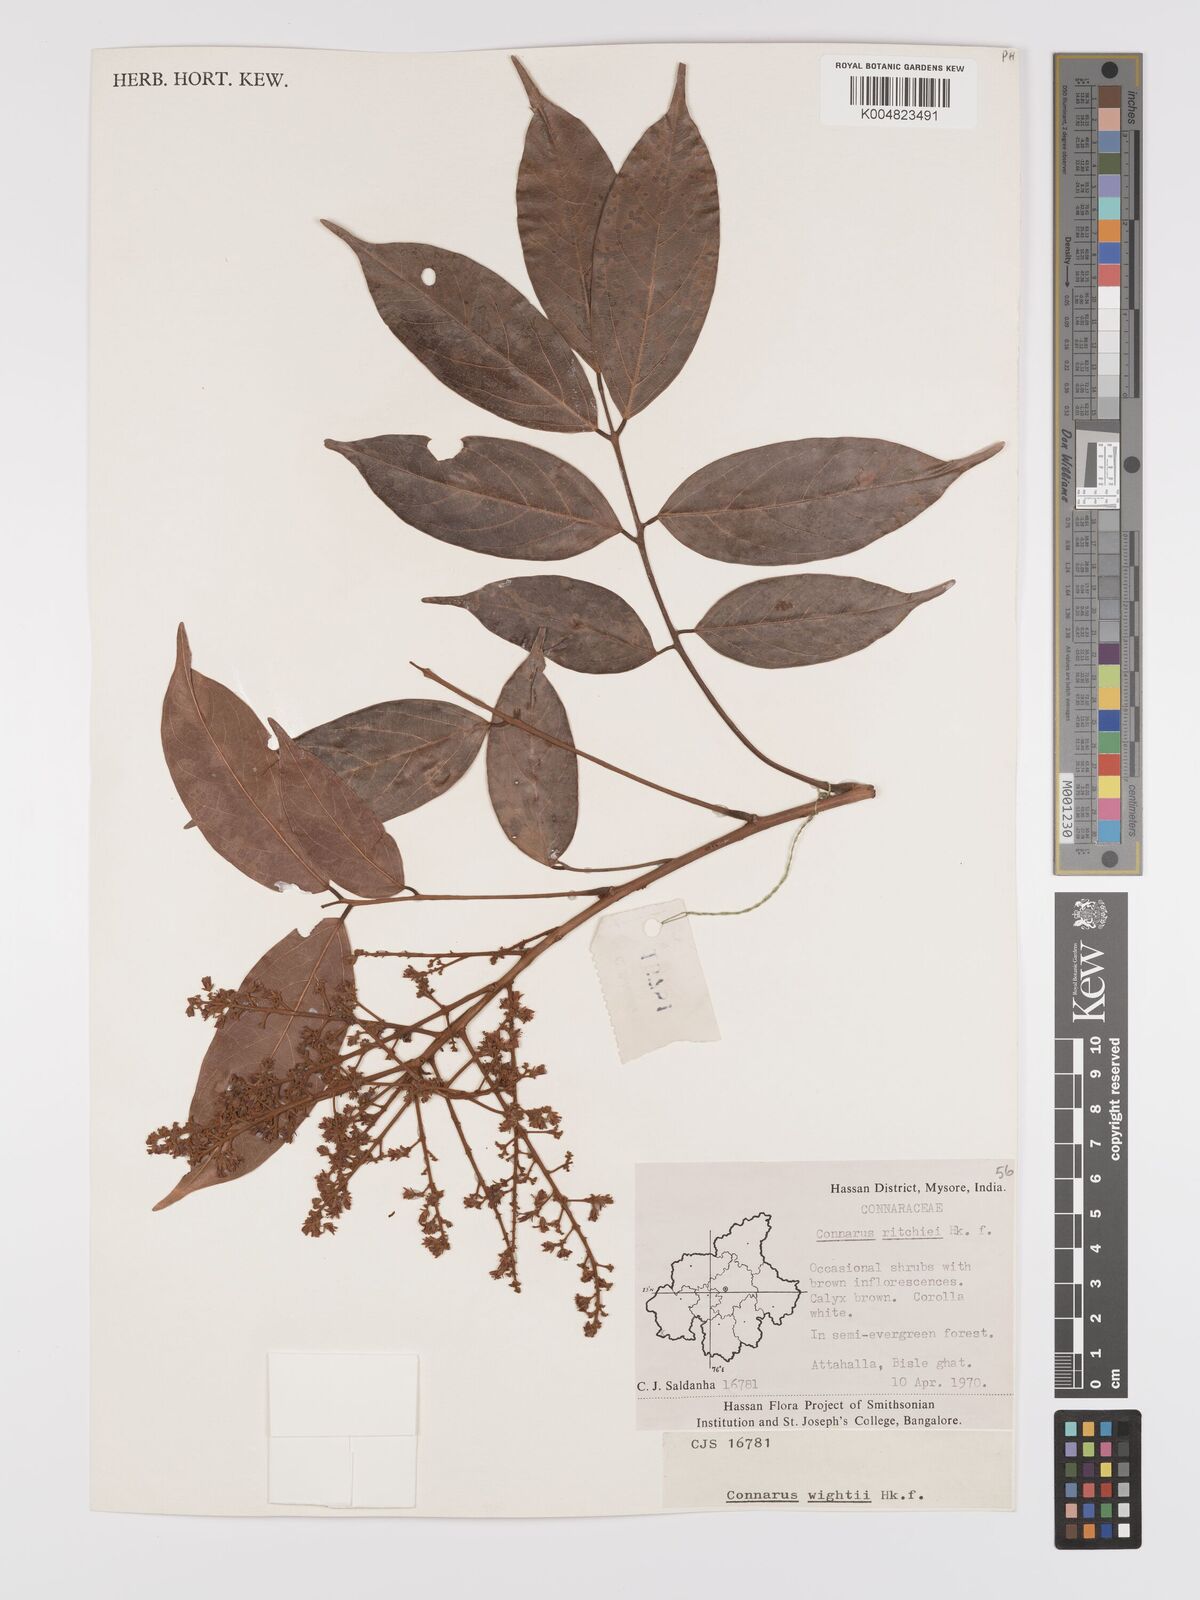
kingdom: Plantae
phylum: Tracheophyta
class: Magnoliopsida
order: Oxalidales
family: Connaraceae
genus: Connarus
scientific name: Connarus wightii
